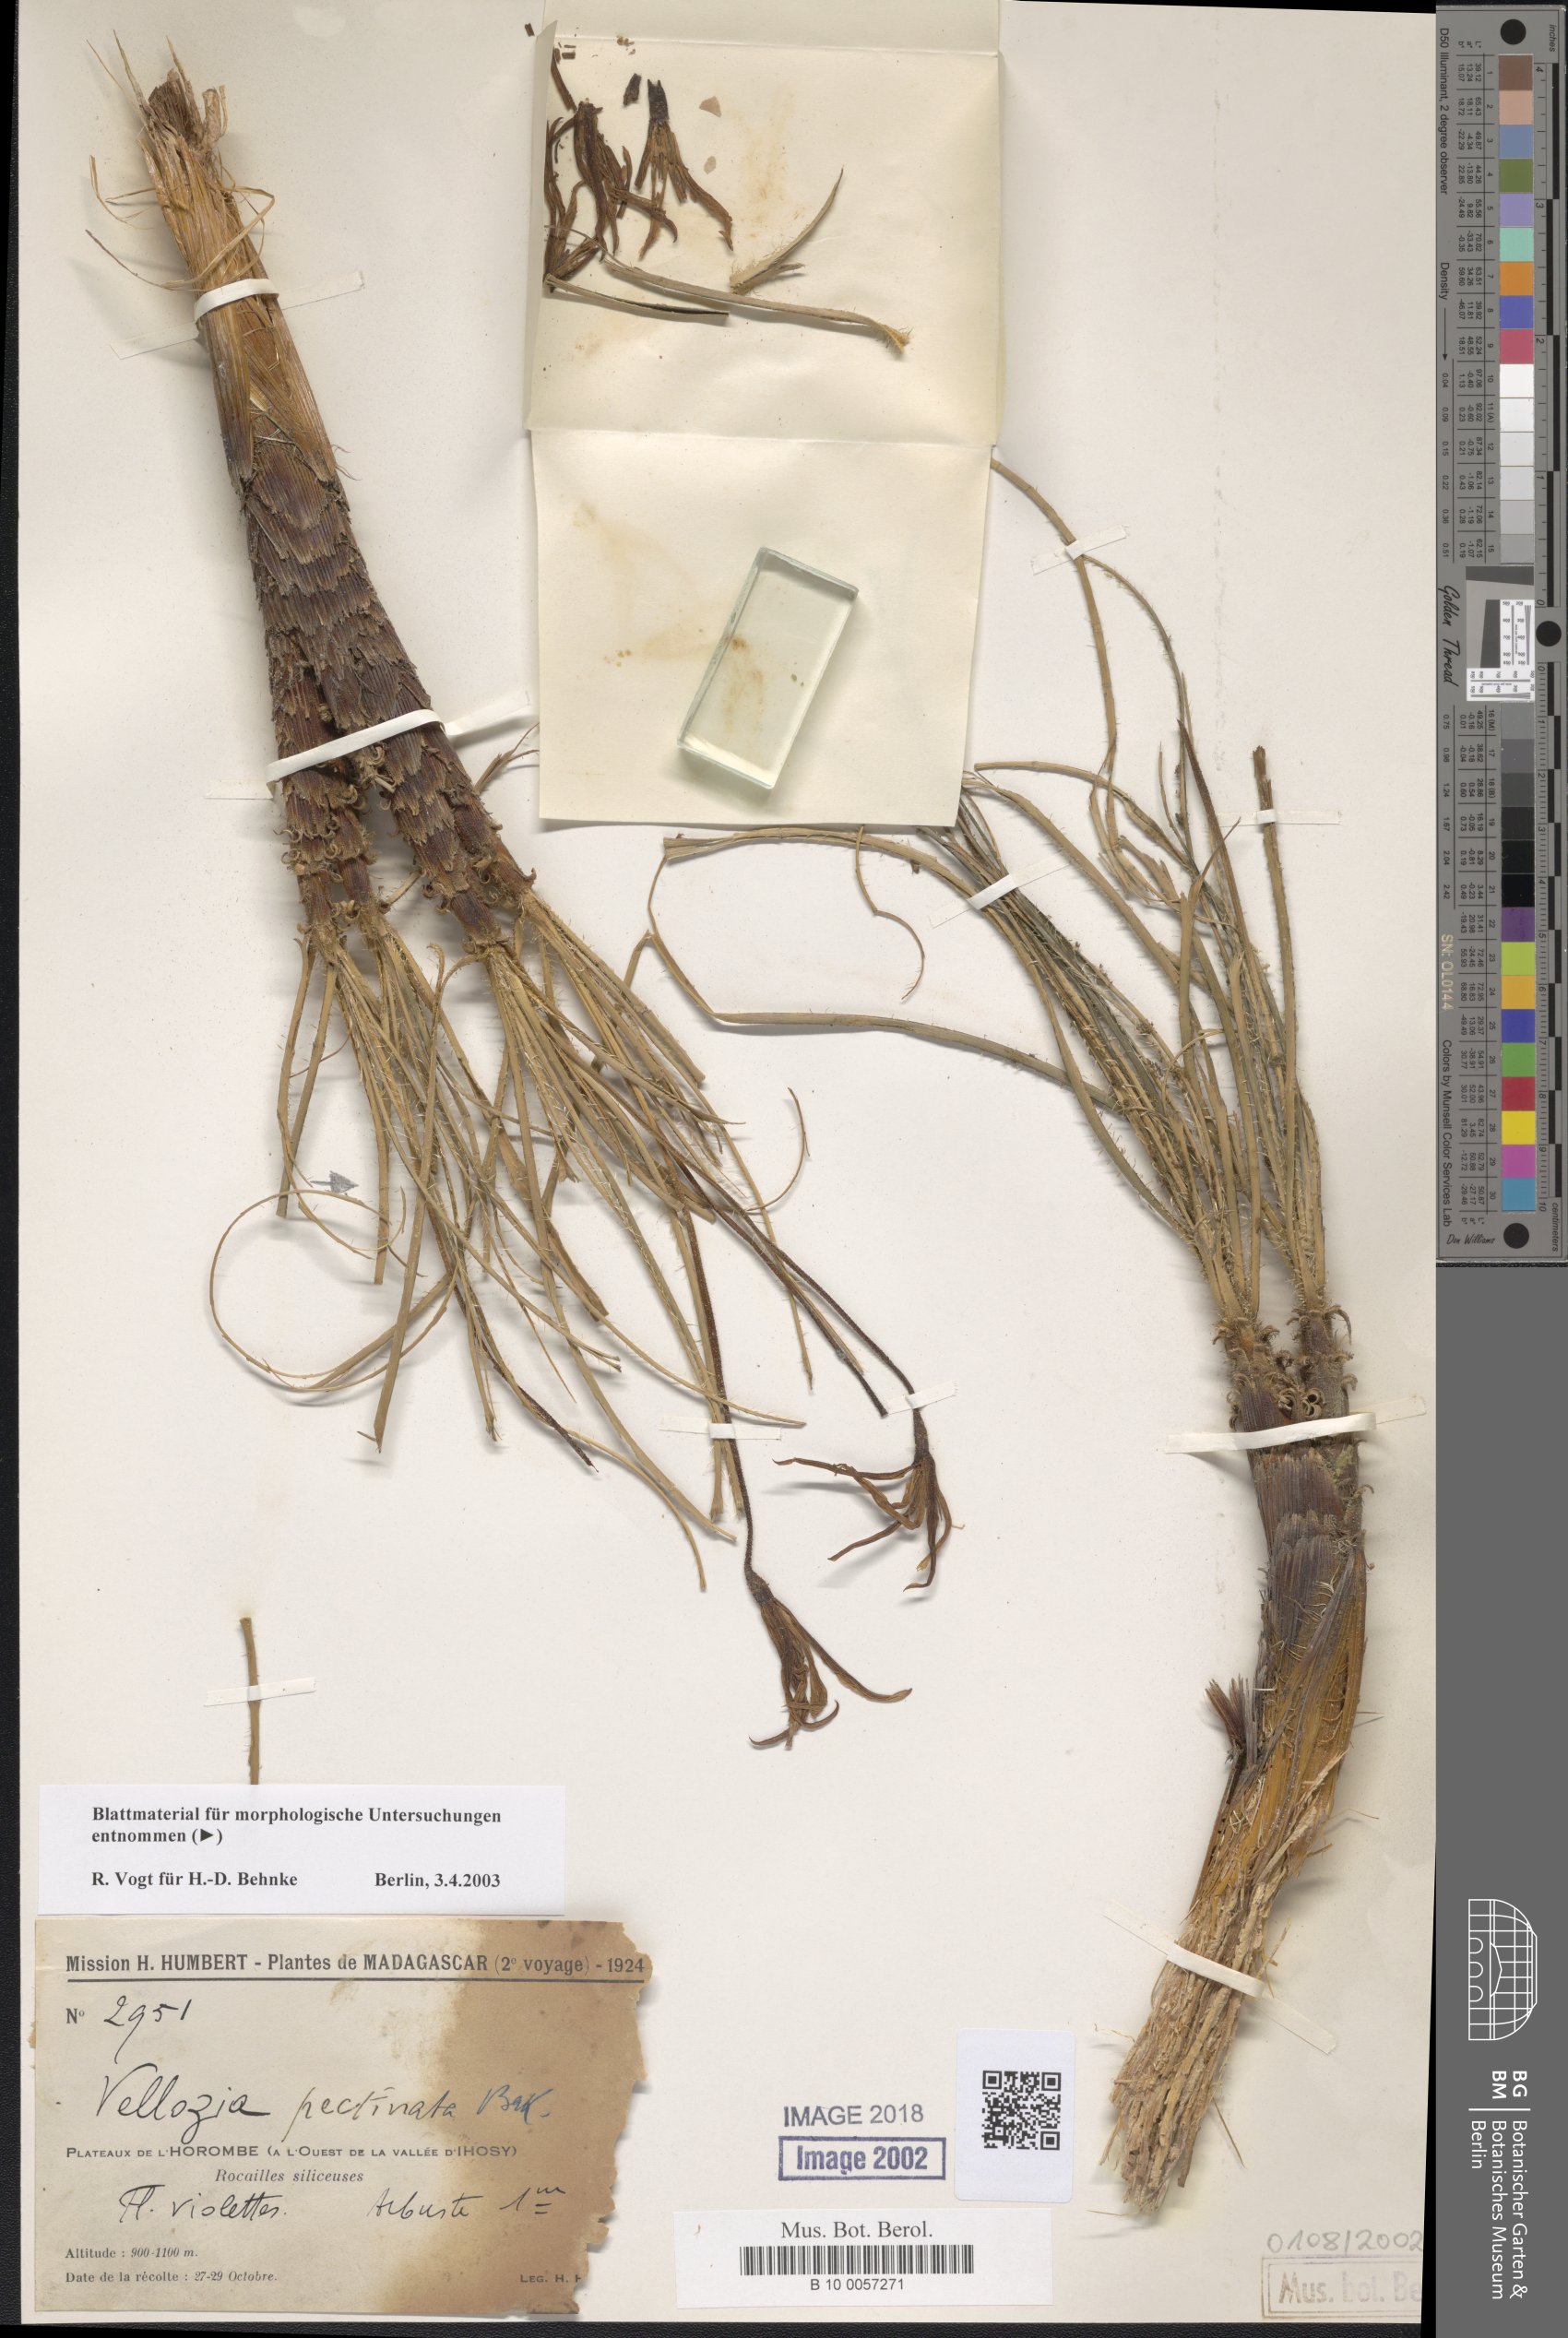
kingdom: Plantae
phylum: Tracheophyta
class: Liliopsida
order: Pandanales
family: Velloziaceae
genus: Xerophyta
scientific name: Xerophyta pectinata
